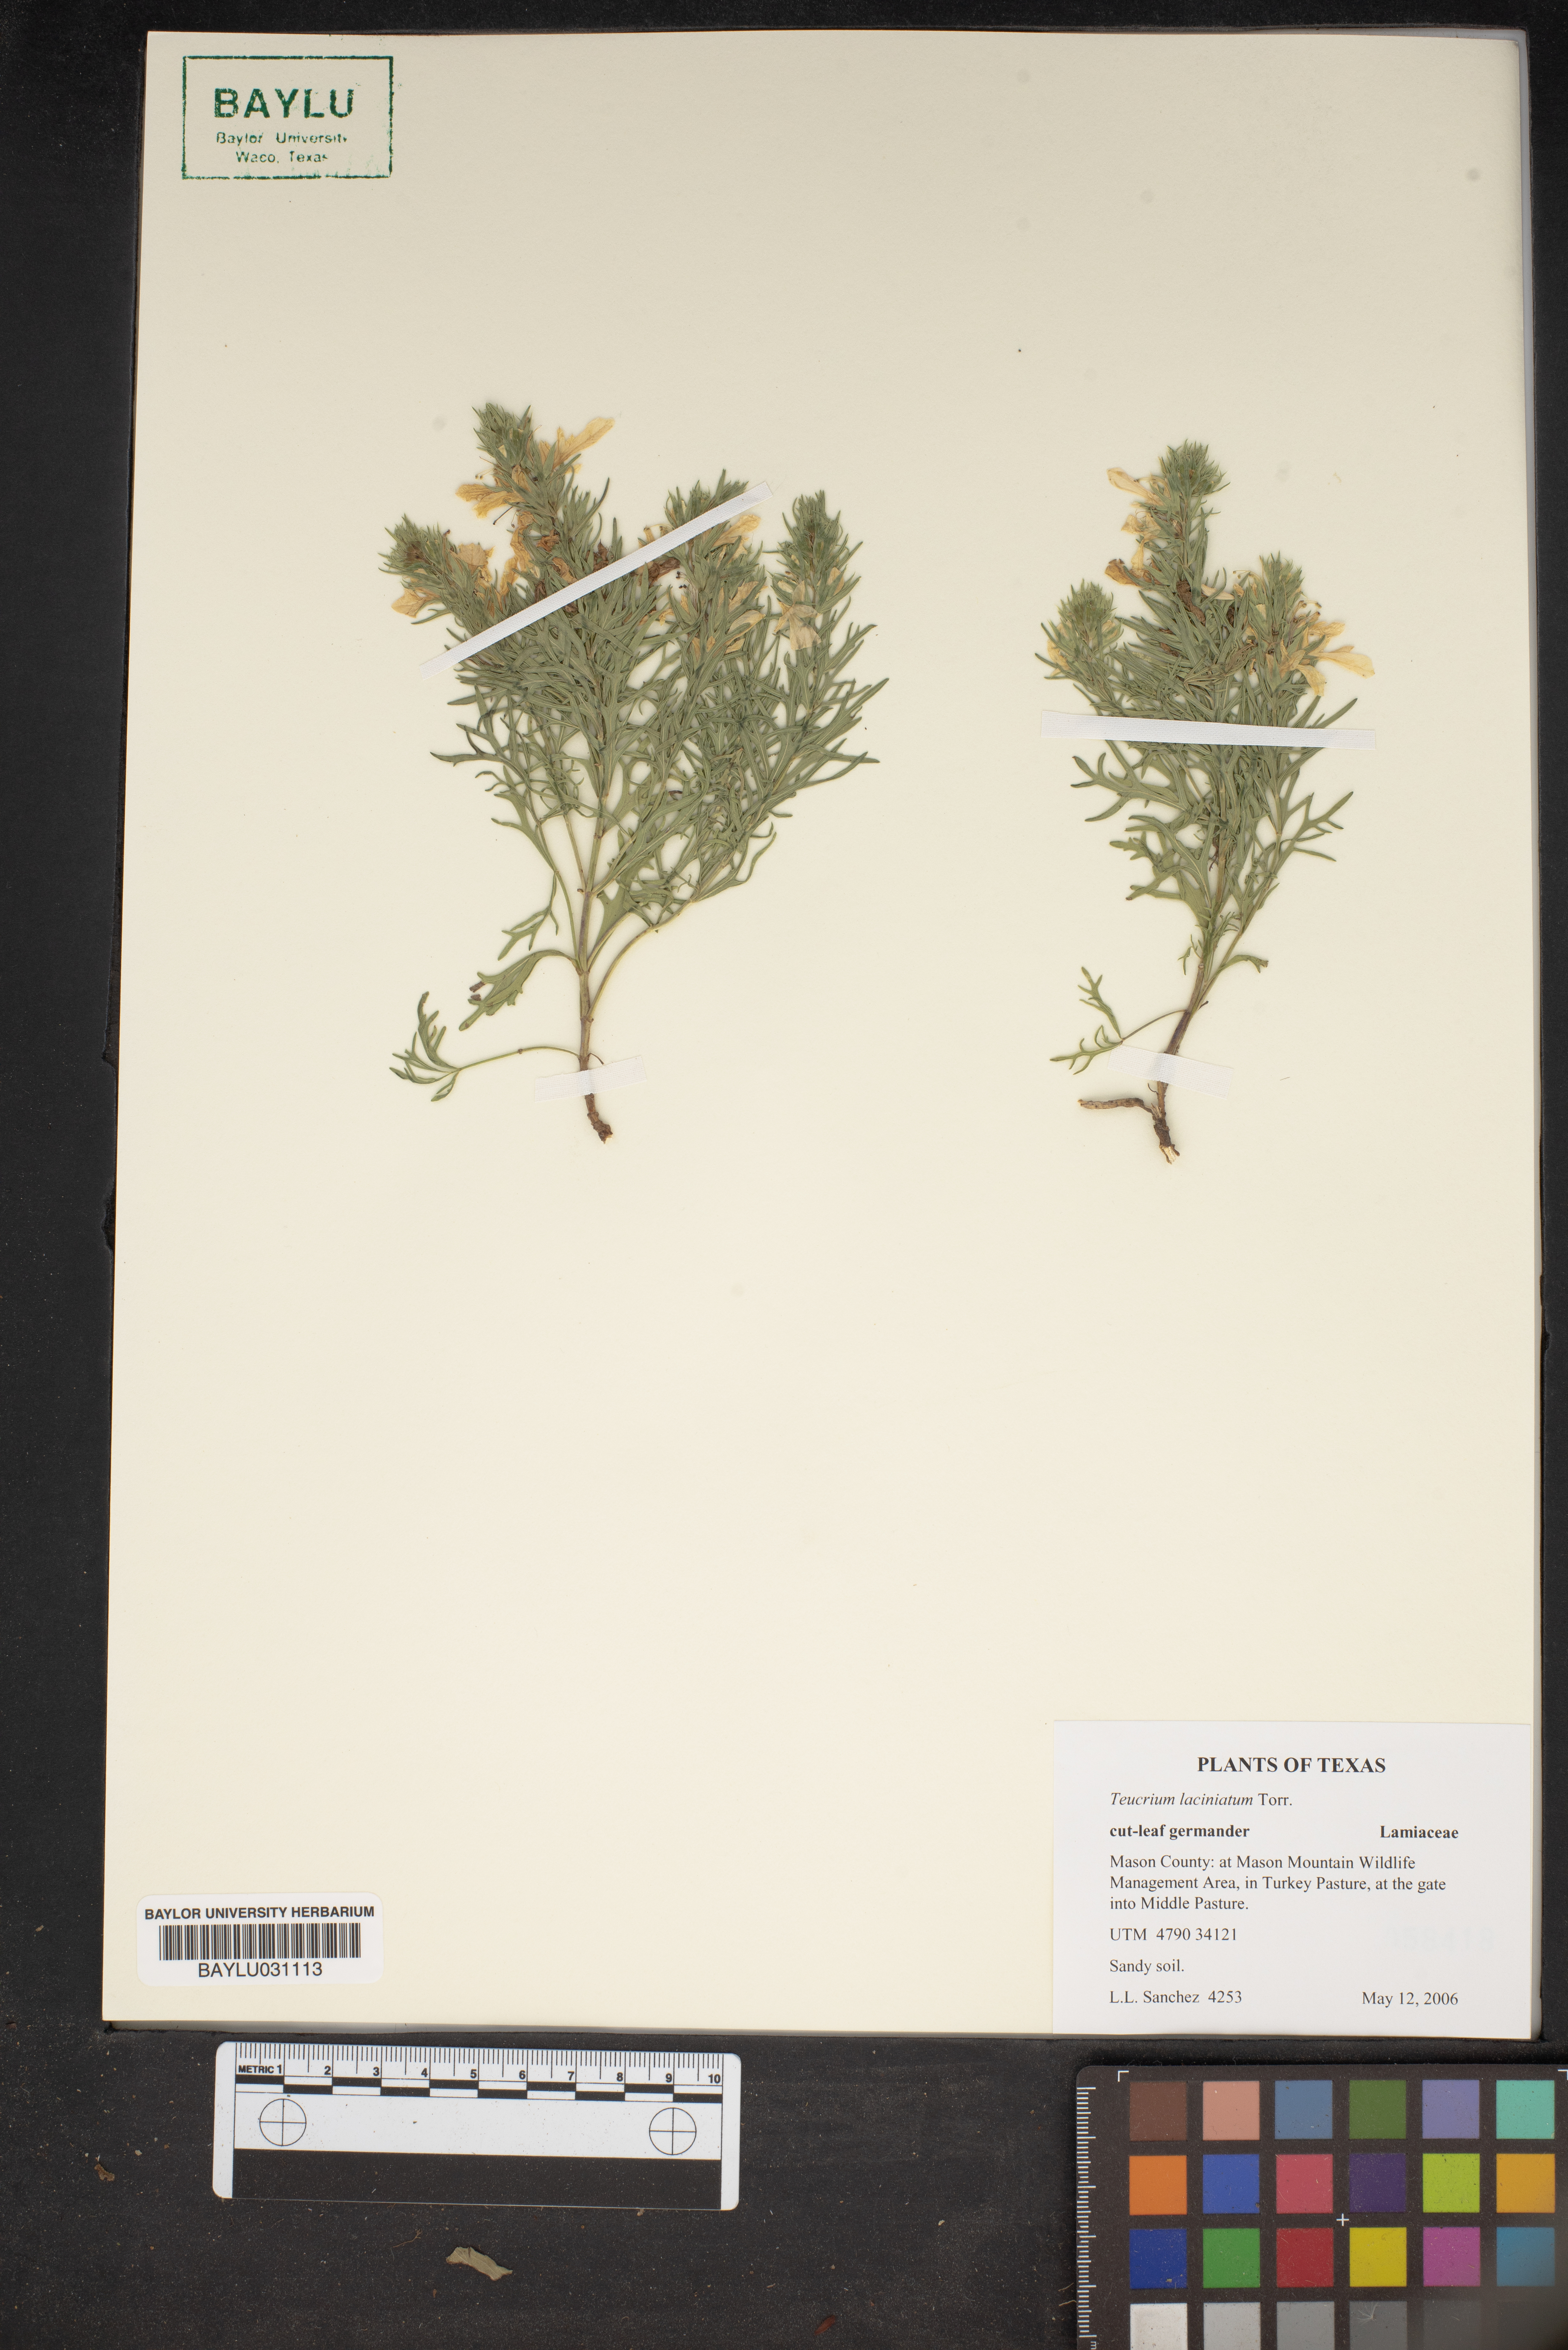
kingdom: Plantae
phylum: Tracheophyta
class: Magnoliopsida
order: Lamiales
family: Lamiaceae
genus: Teucrium
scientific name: Teucrium laciniatum
